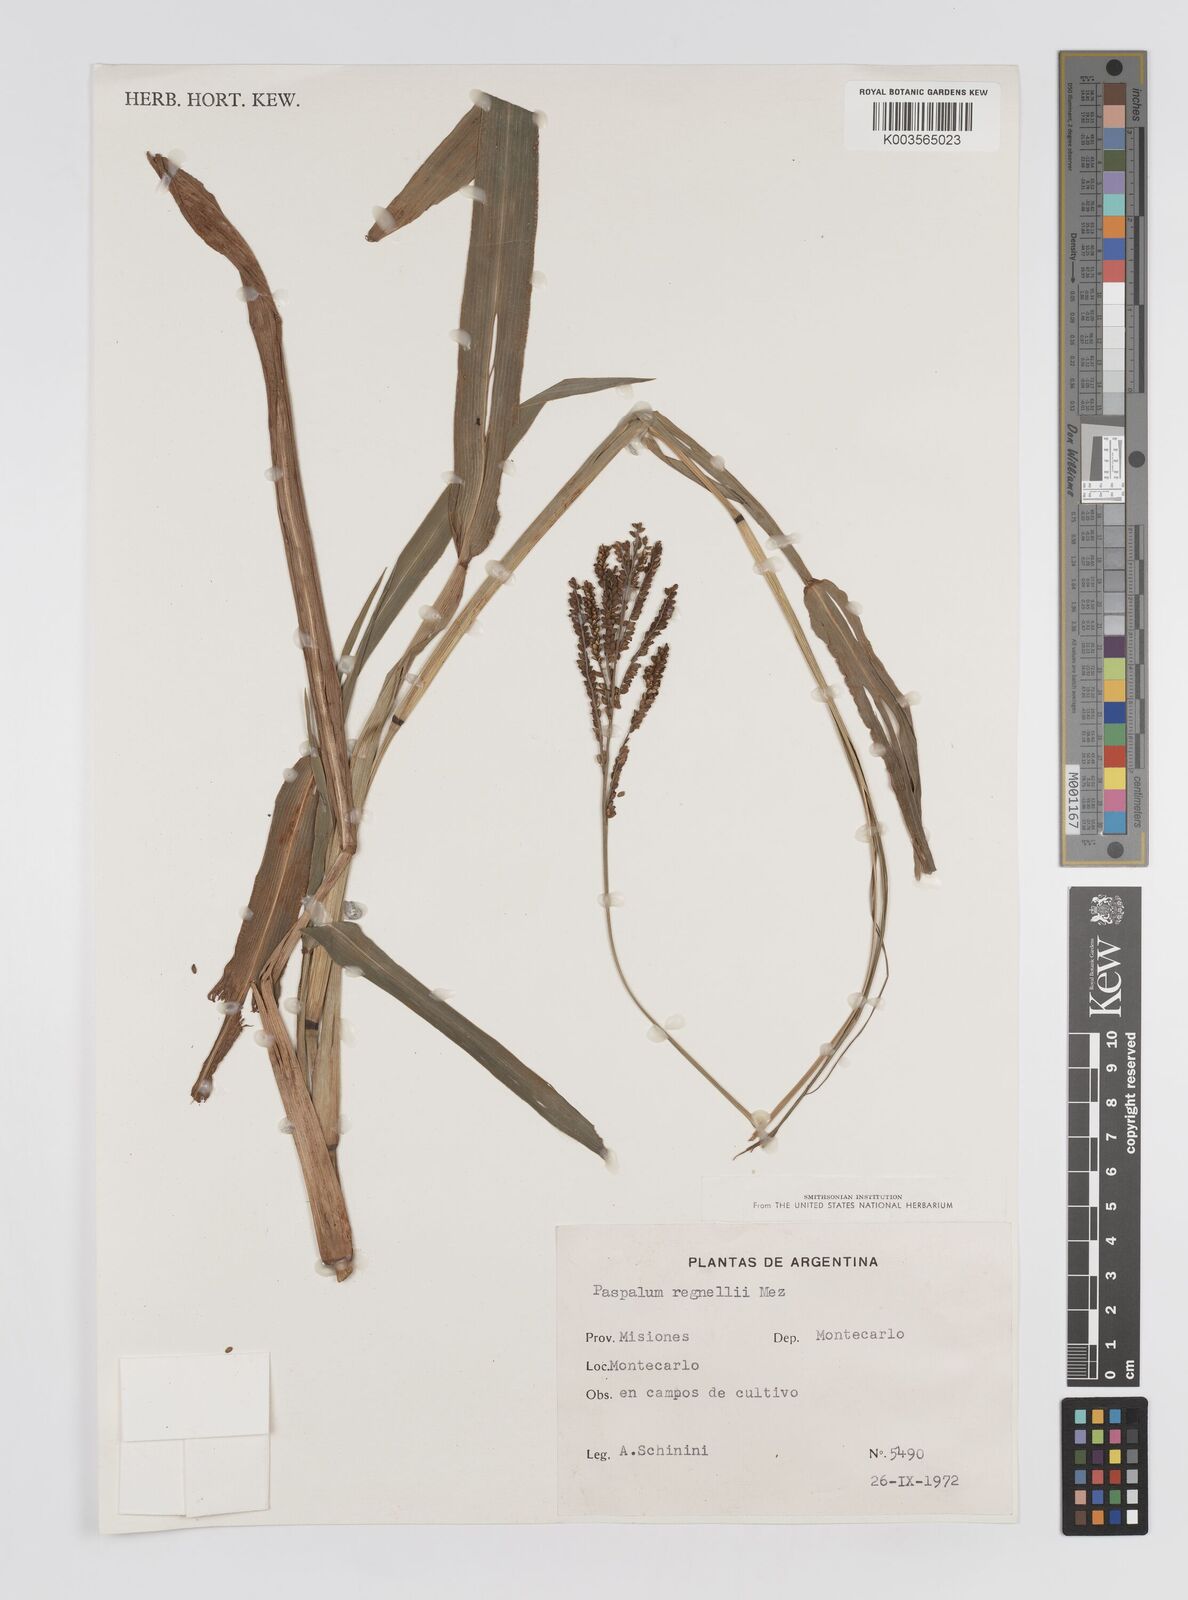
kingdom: Plantae
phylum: Tracheophyta
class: Liliopsida
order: Poales
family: Poaceae
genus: Paspalum
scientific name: Paspalum regnellii
